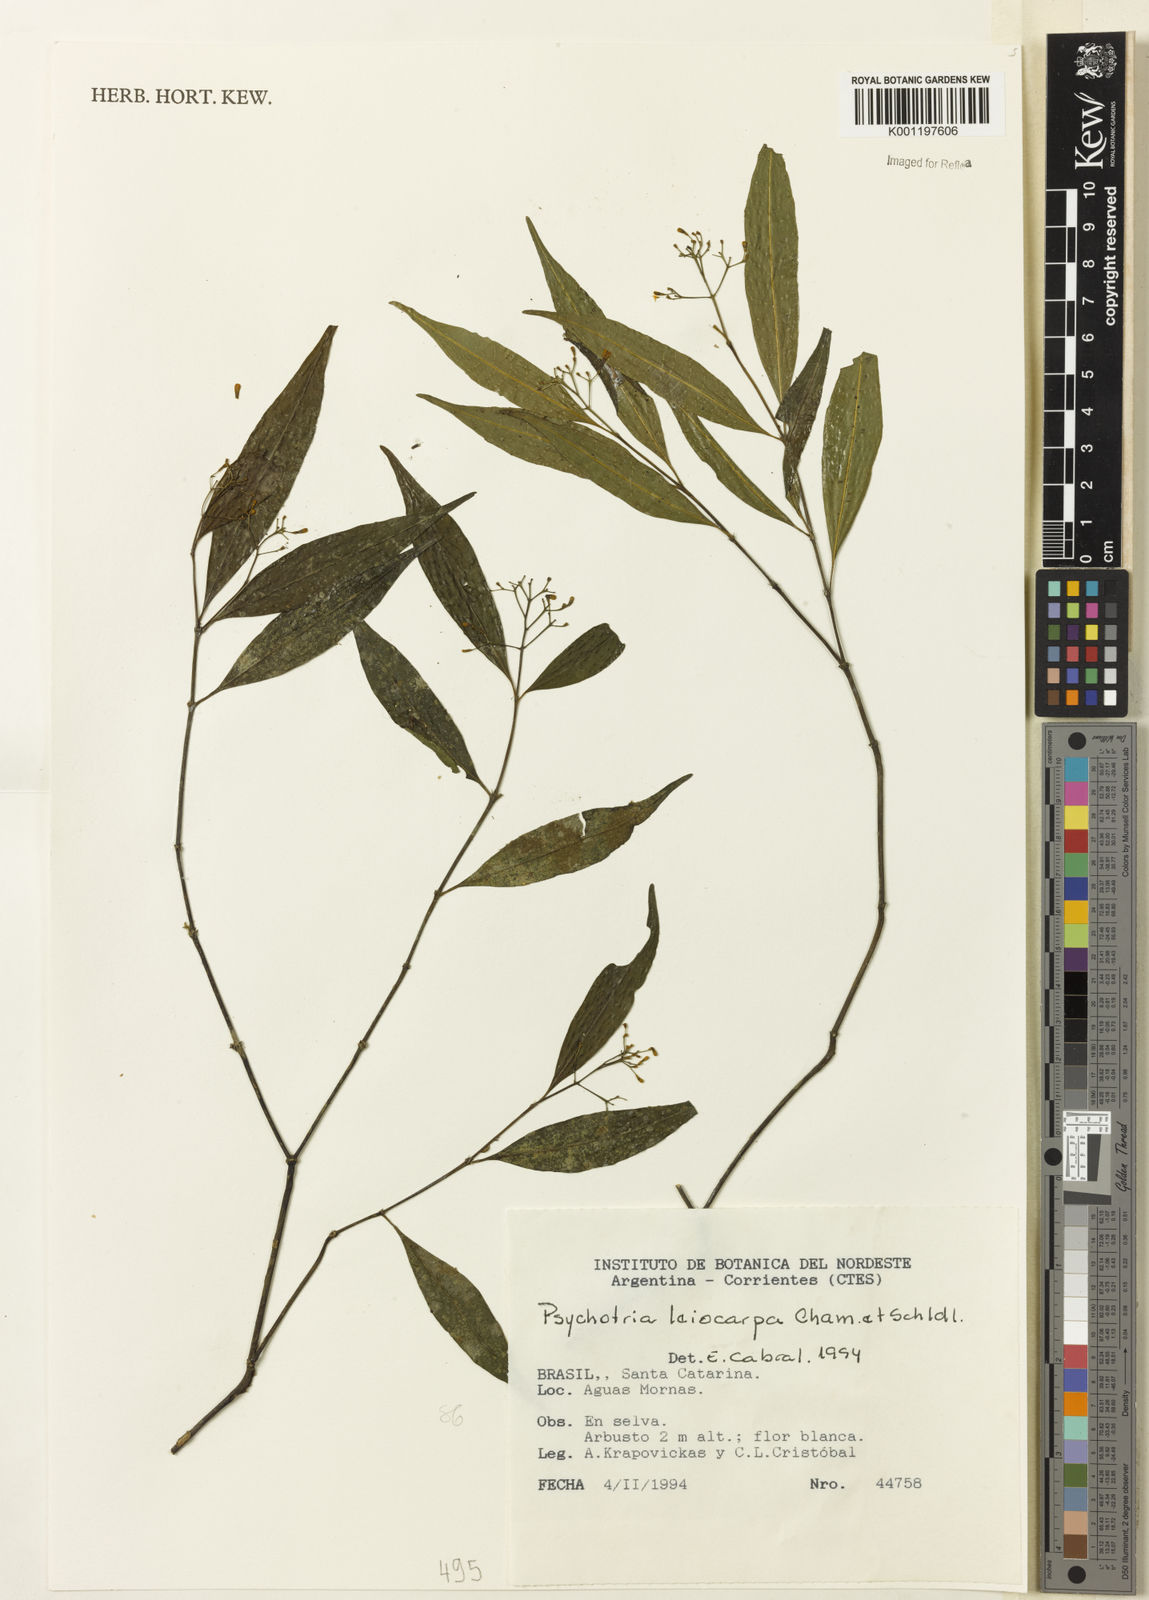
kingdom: Plantae
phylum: Tracheophyta
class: Magnoliopsida
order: Gentianales
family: Rubiaceae
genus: Psychotria
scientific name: Psychotria leiocarpa
